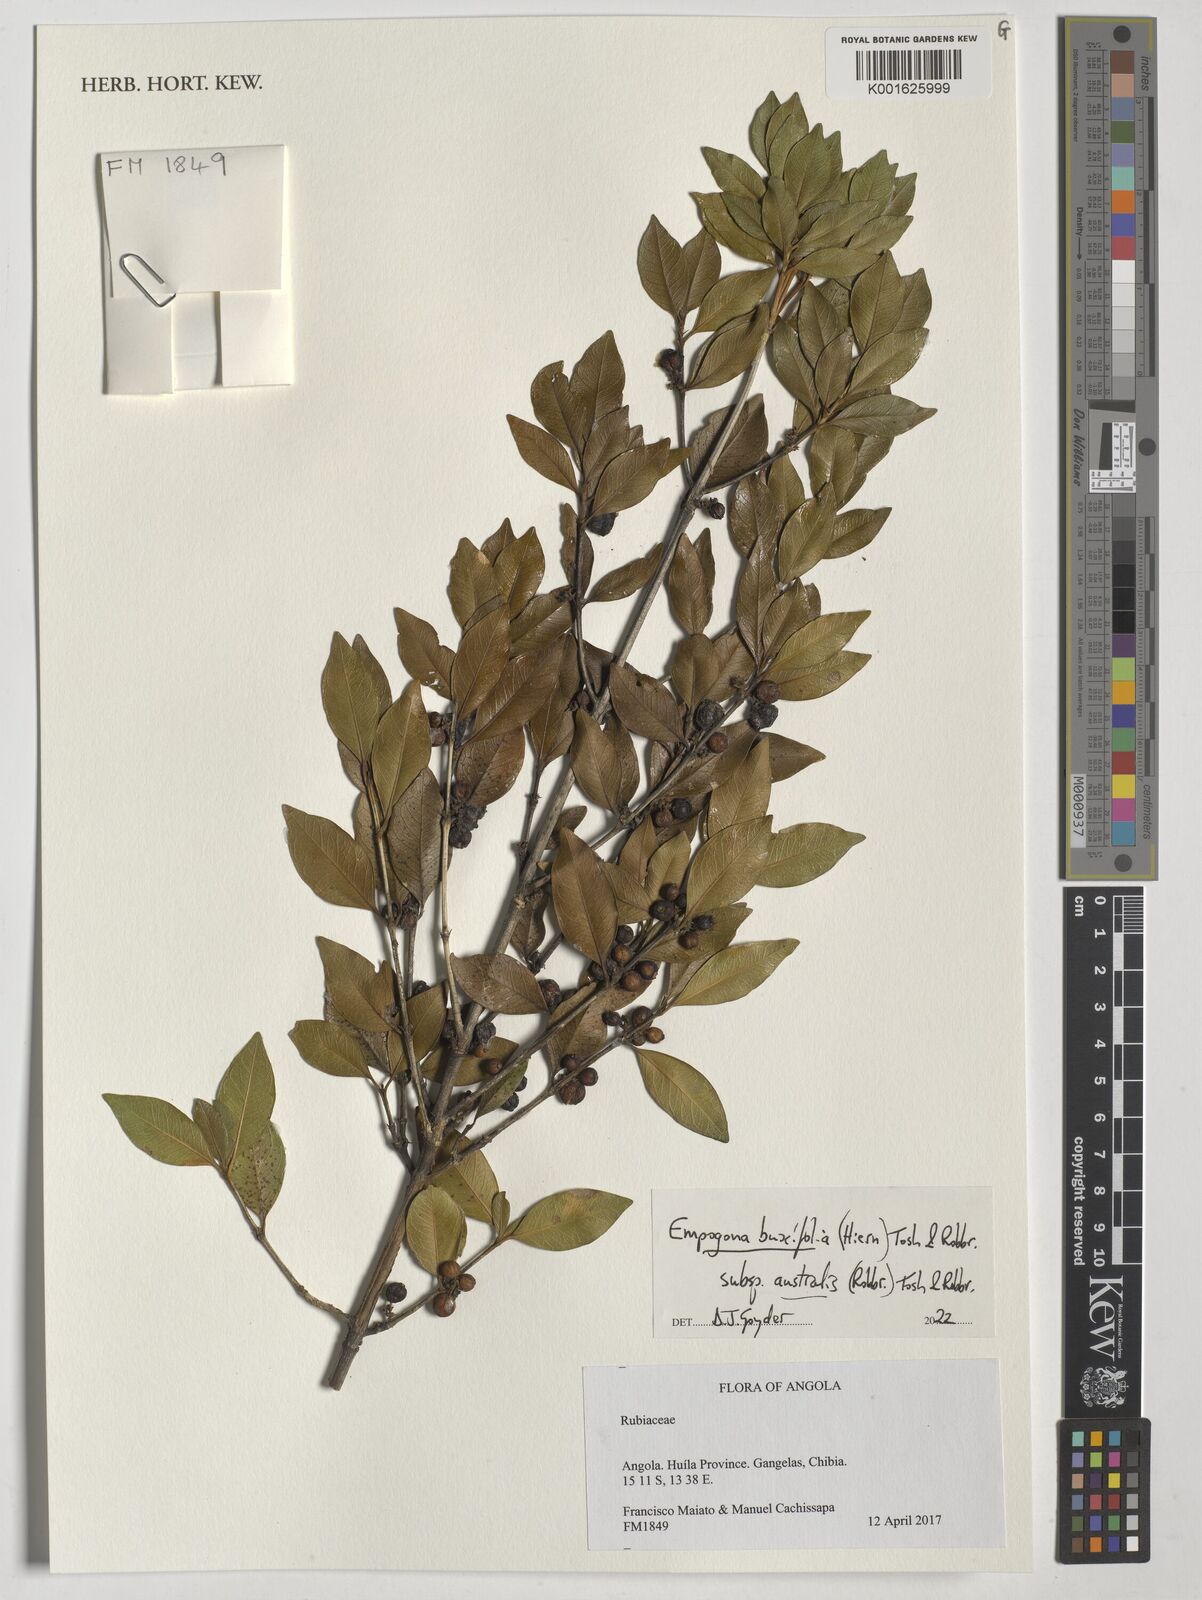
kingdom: Plantae
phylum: Tracheophyta
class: Magnoliopsida
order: Gentianales
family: Rubiaceae
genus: Empogona
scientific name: Empogona buxifolia
